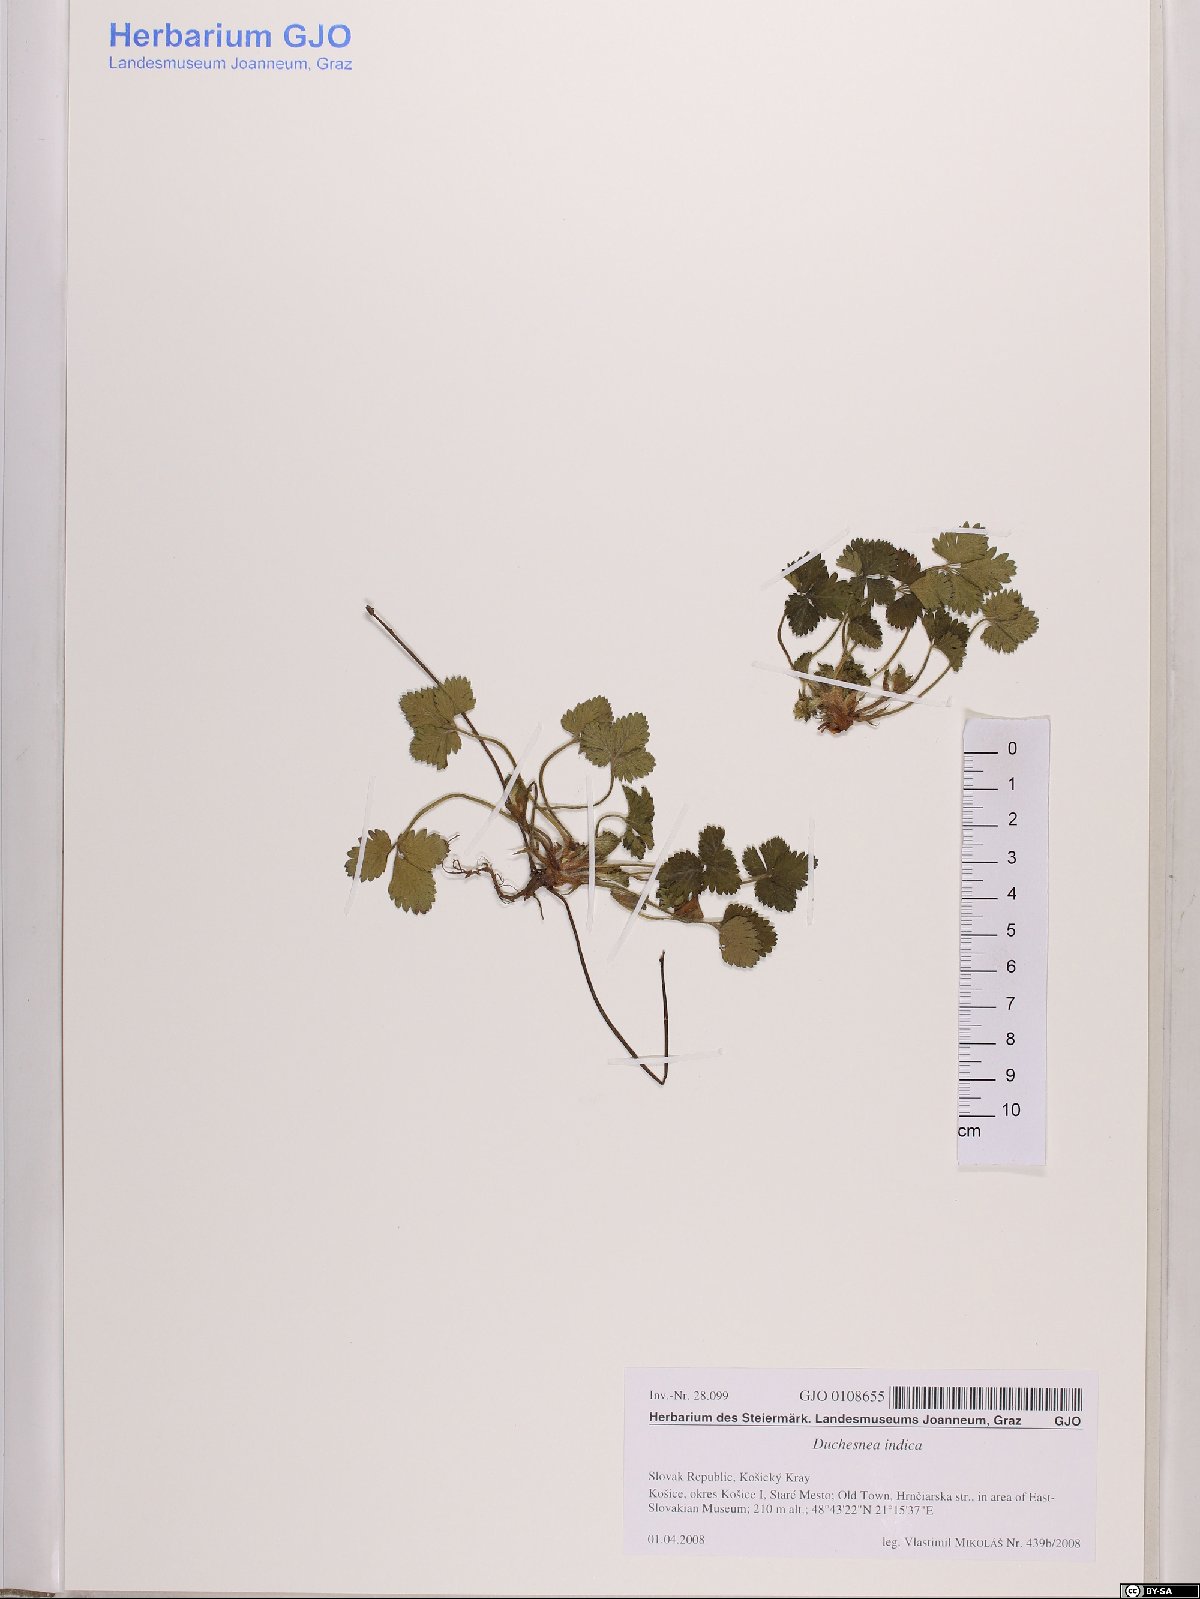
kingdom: Plantae
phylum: Tracheophyta
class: Magnoliopsida
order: Rosales
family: Rosaceae
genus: Potentilla
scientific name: Potentilla indica
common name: Yellow-flowered strawberry
